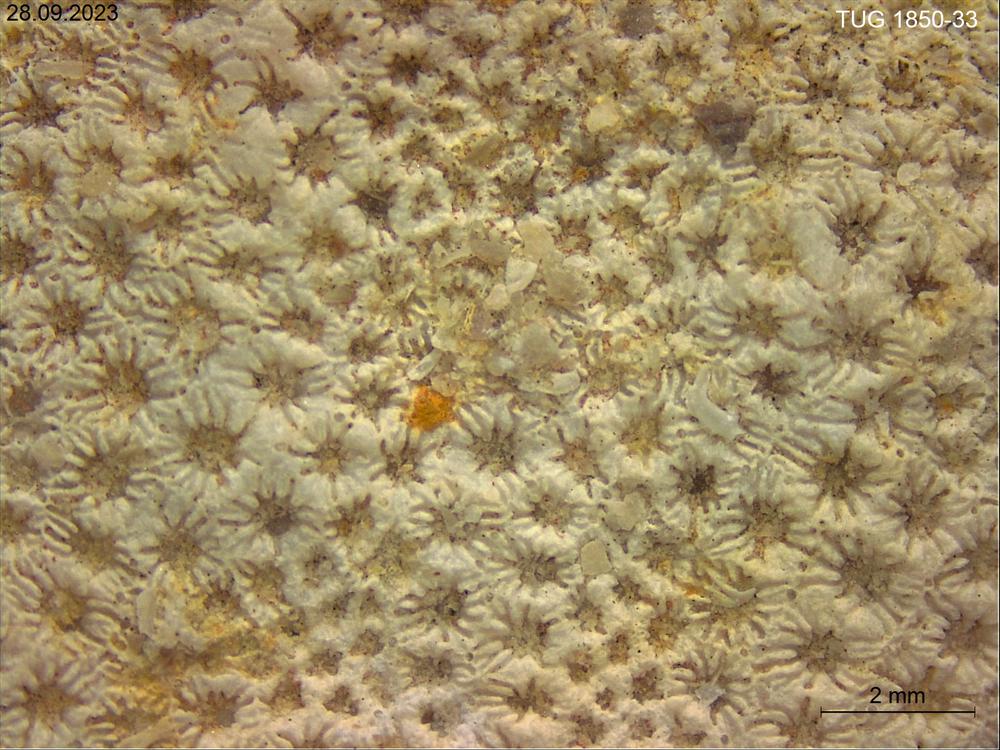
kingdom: Animalia
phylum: Cnidaria
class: Anthozoa
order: Heliolitina
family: Heliolitidae
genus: Heliolites
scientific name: Heliolites
